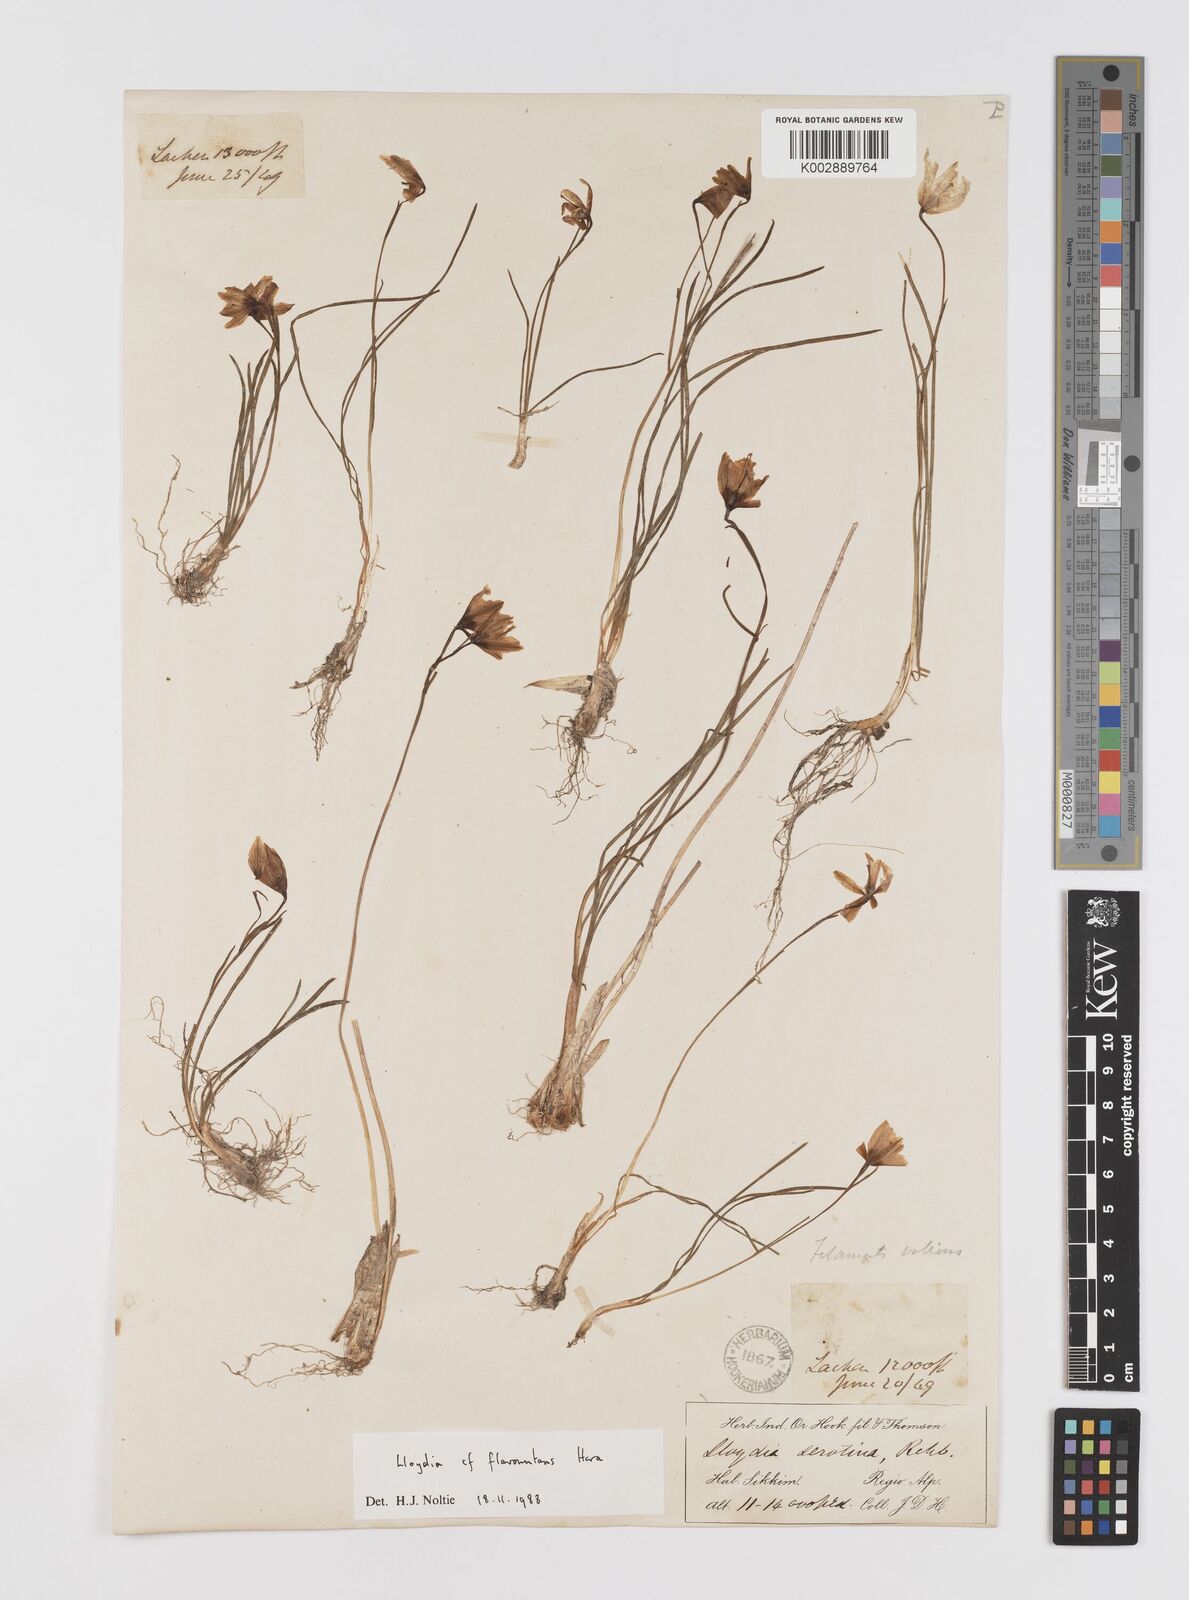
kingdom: Plantae
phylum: Tracheophyta
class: Liliopsida
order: Liliales
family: Liliaceae
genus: Gagea
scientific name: Gagea flavonutans
